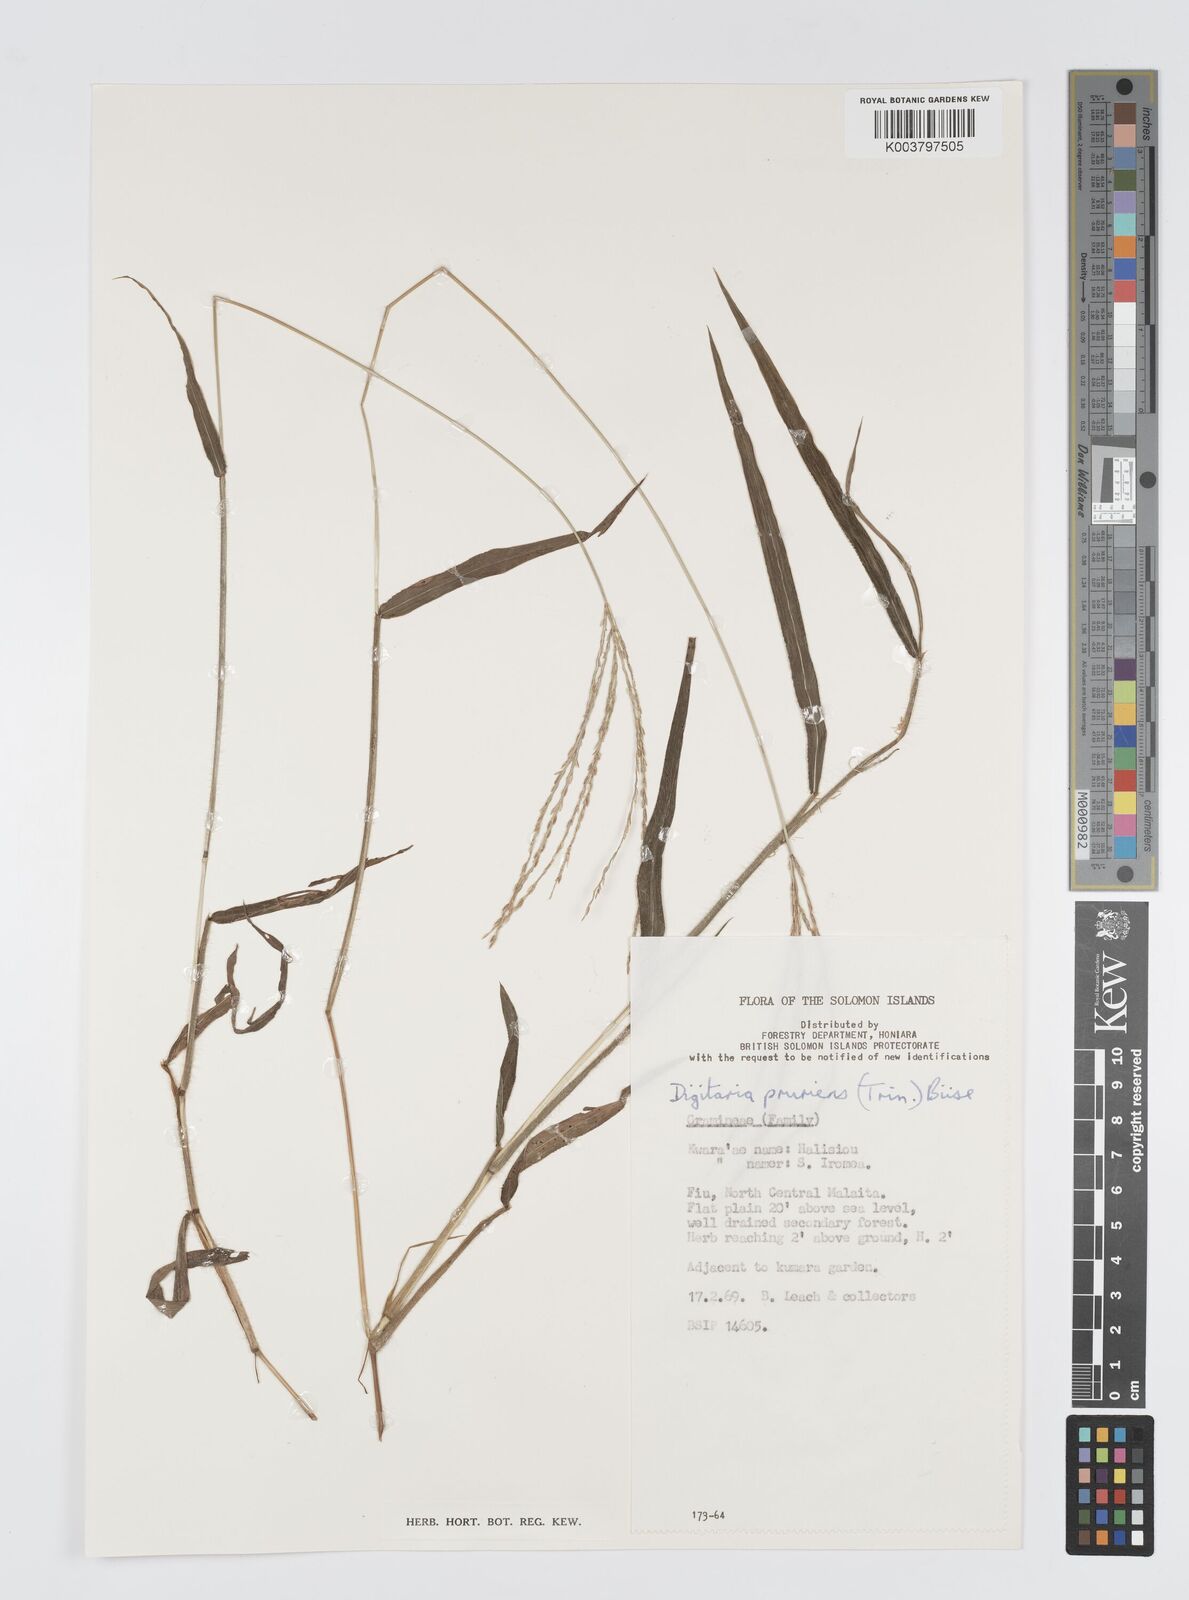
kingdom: Plantae
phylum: Tracheophyta
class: Liliopsida
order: Poales
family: Poaceae
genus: Digitaria
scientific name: Digitaria setigera
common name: East indian crabgrass
